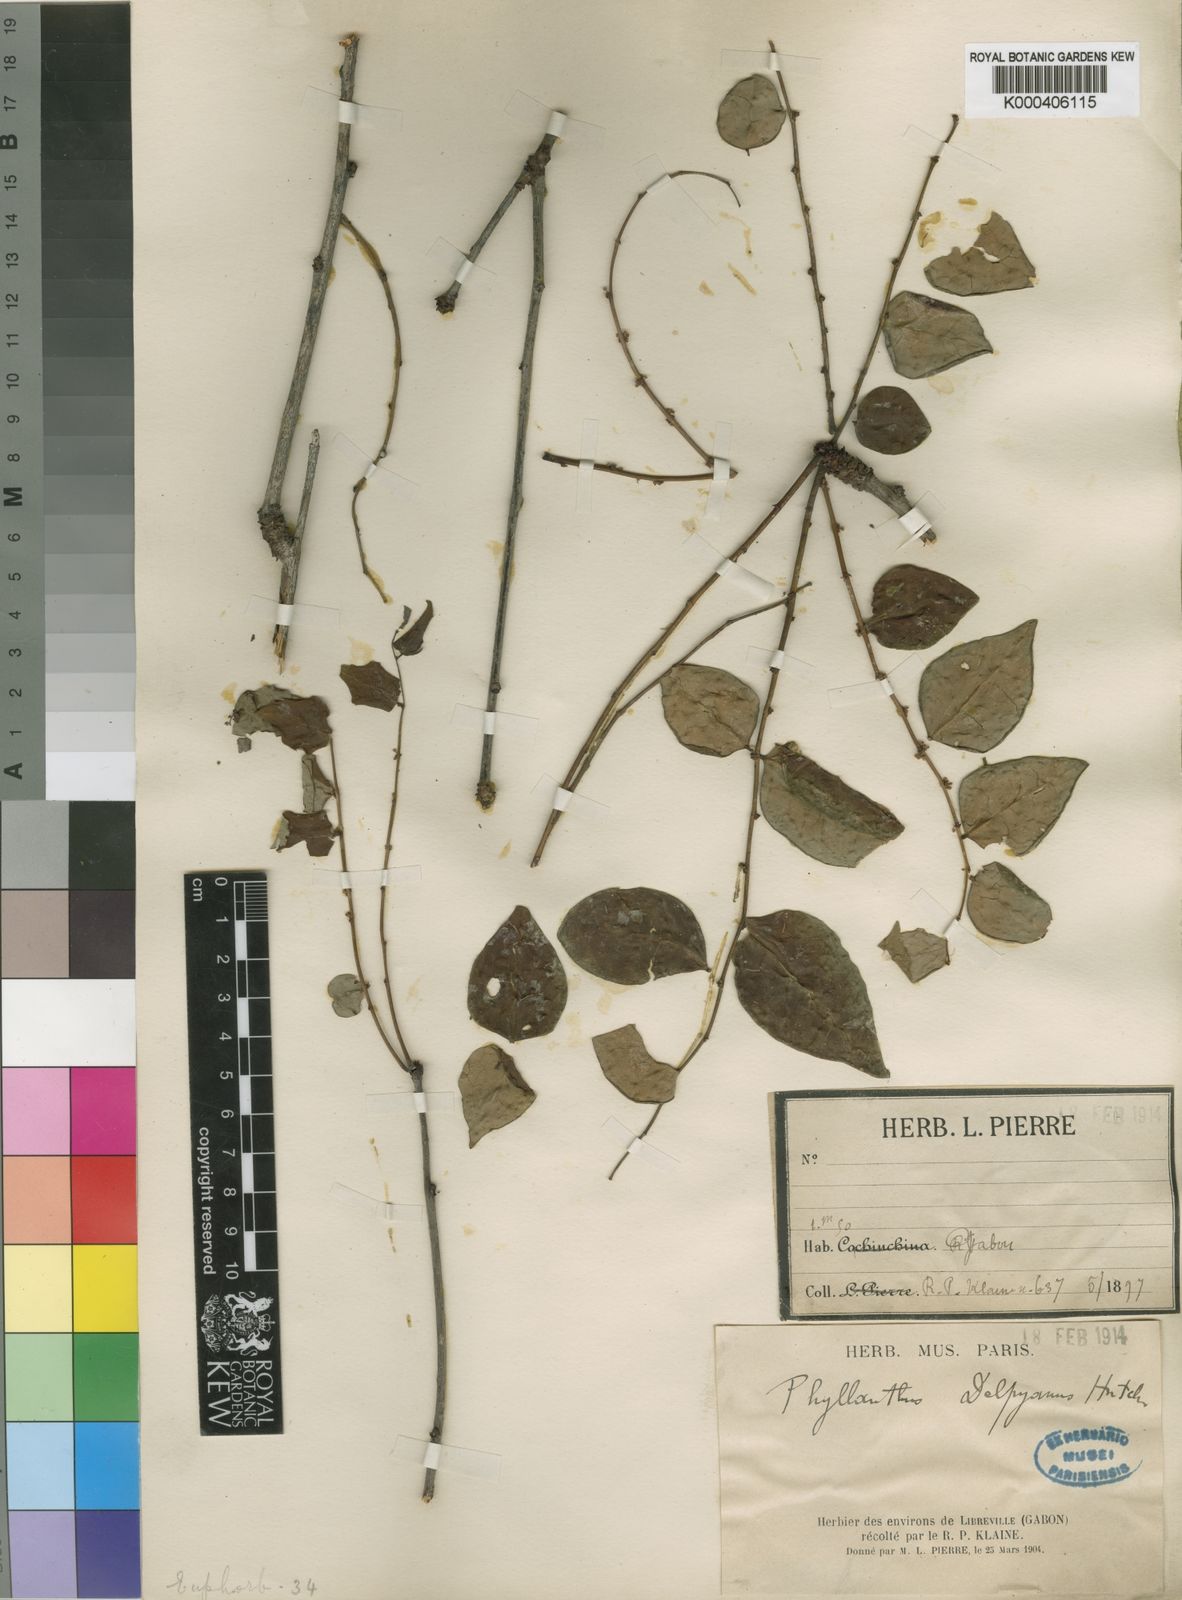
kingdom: Plantae
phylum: Tracheophyta
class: Magnoliopsida
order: Malpighiales
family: Phyllanthaceae
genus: Phyllanthus
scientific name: Phyllanthus
